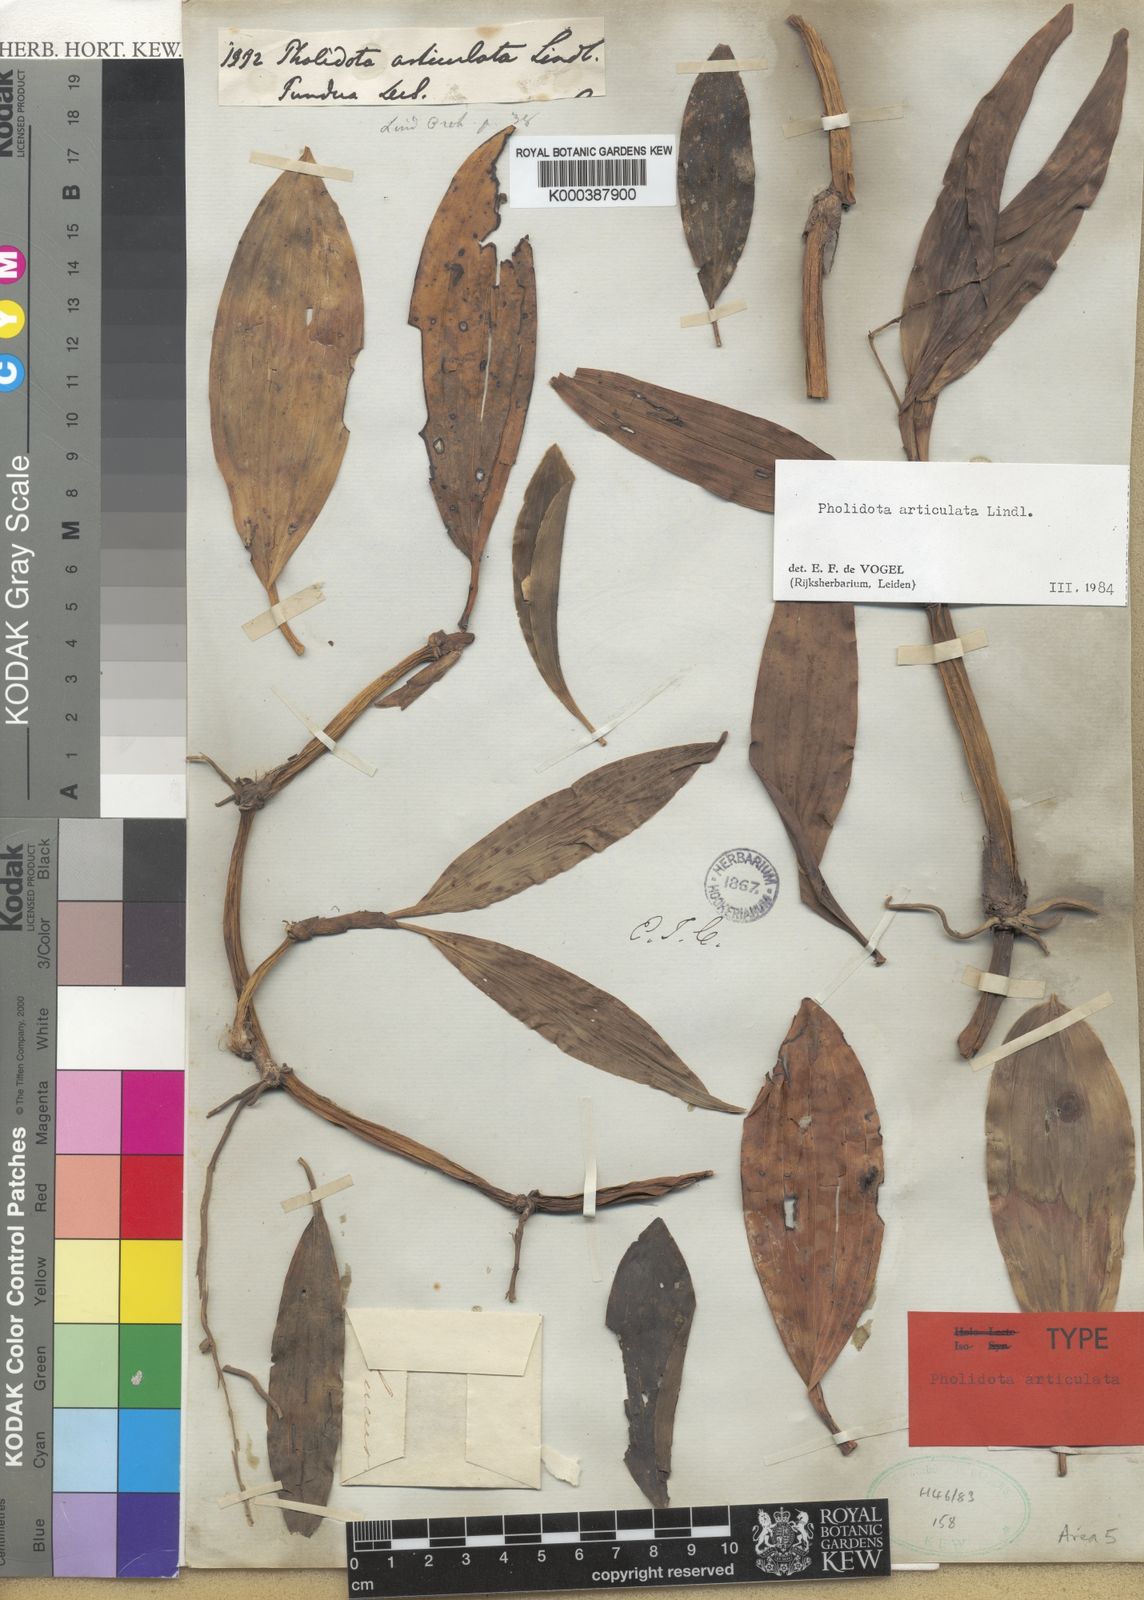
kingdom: Plantae
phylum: Tracheophyta
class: Liliopsida
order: Asparagales
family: Orchidaceae
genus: Coelogyne
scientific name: Coelogyne articulata
